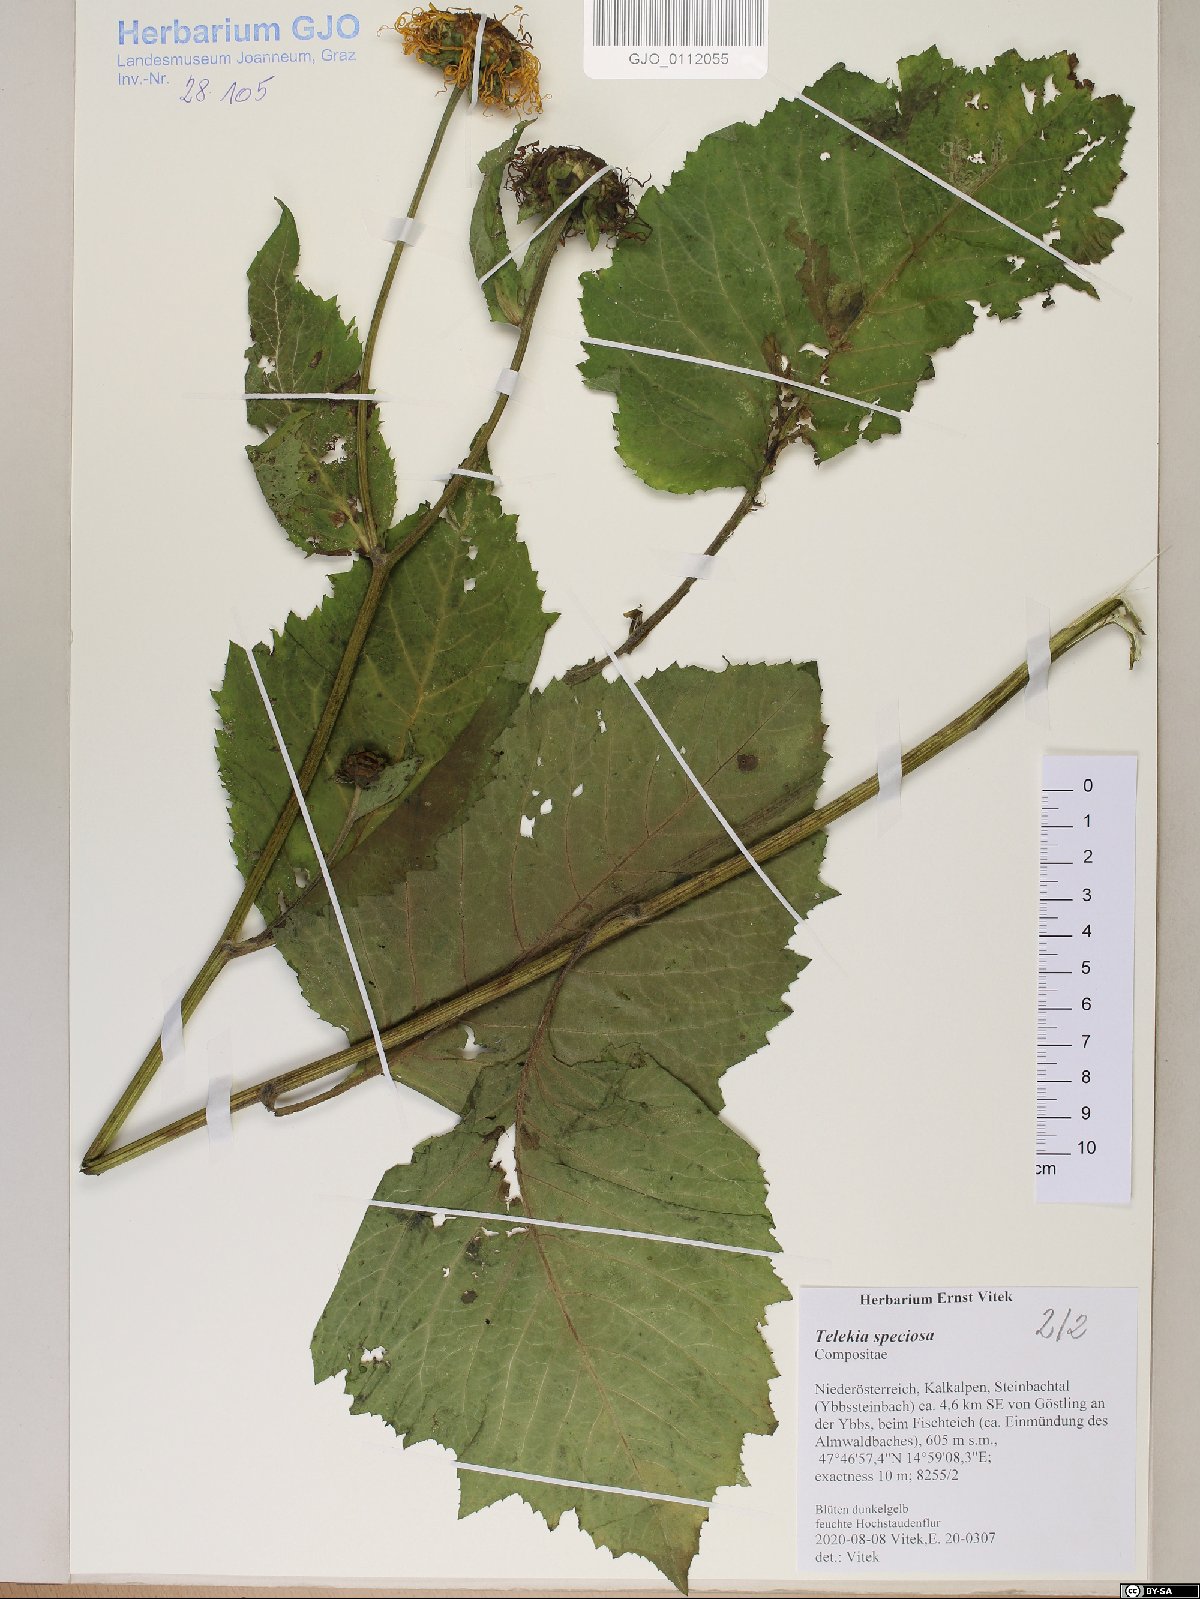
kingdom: Plantae
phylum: Tracheophyta
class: Magnoliopsida
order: Asterales
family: Asteraceae
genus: Telekia
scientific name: Telekia speciosa
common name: Yellow oxeye
